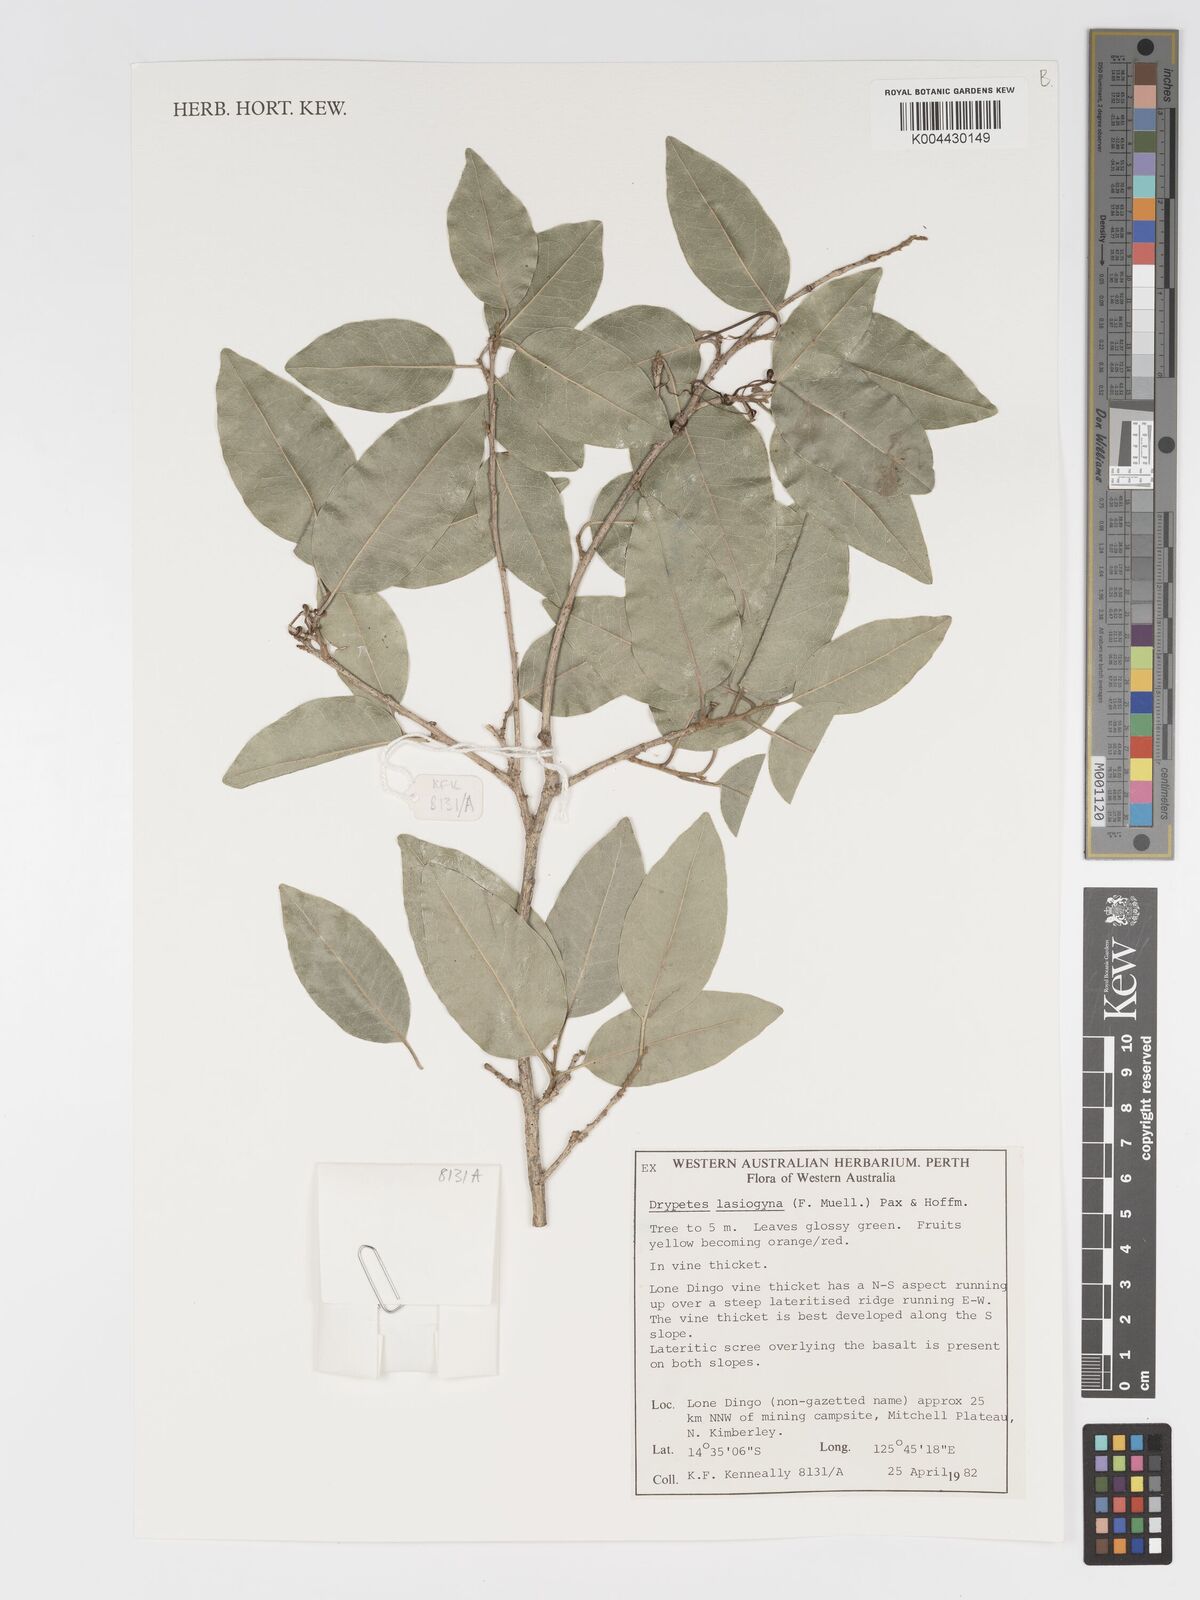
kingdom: Plantae
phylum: Tracheophyta
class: Magnoliopsida
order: Malpighiales
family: Putranjivaceae
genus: Drypetes
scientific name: Drypetes deplanchei
